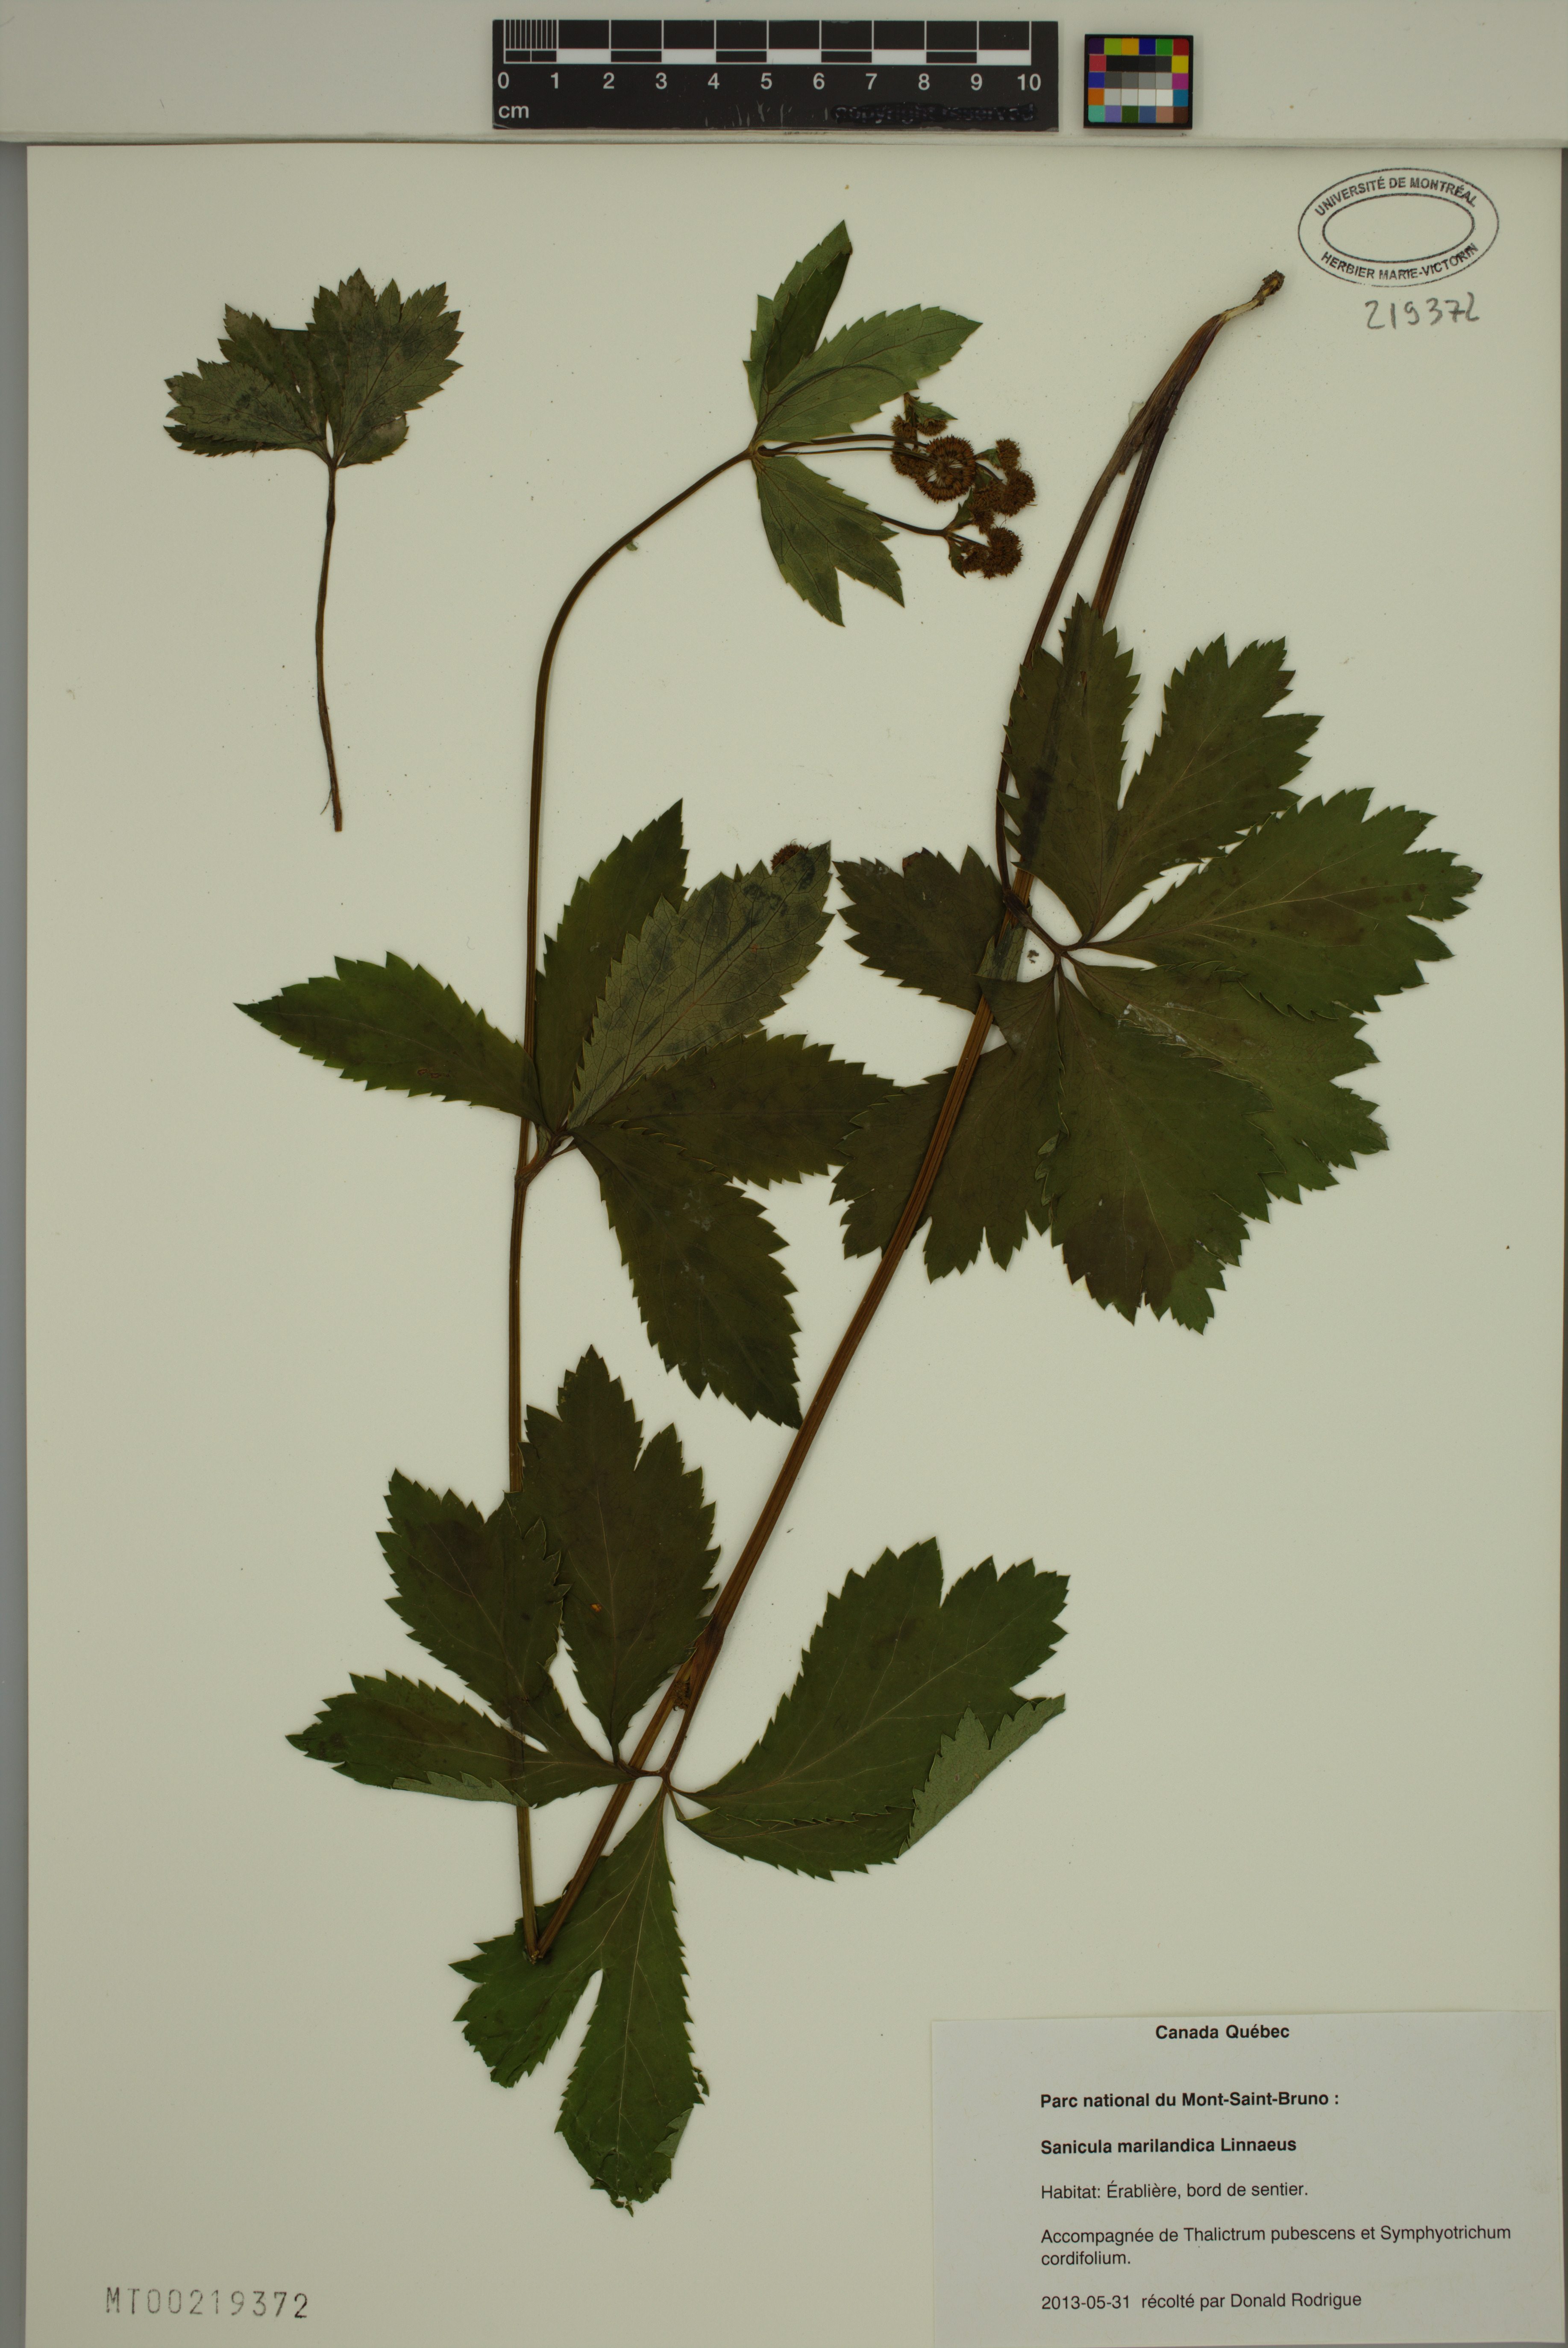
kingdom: Plantae
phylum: Tracheophyta
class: Magnoliopsida
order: Apiales
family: Apiaceae
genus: Sanicula
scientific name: Sanicula marilandica
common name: Black snakeroot
